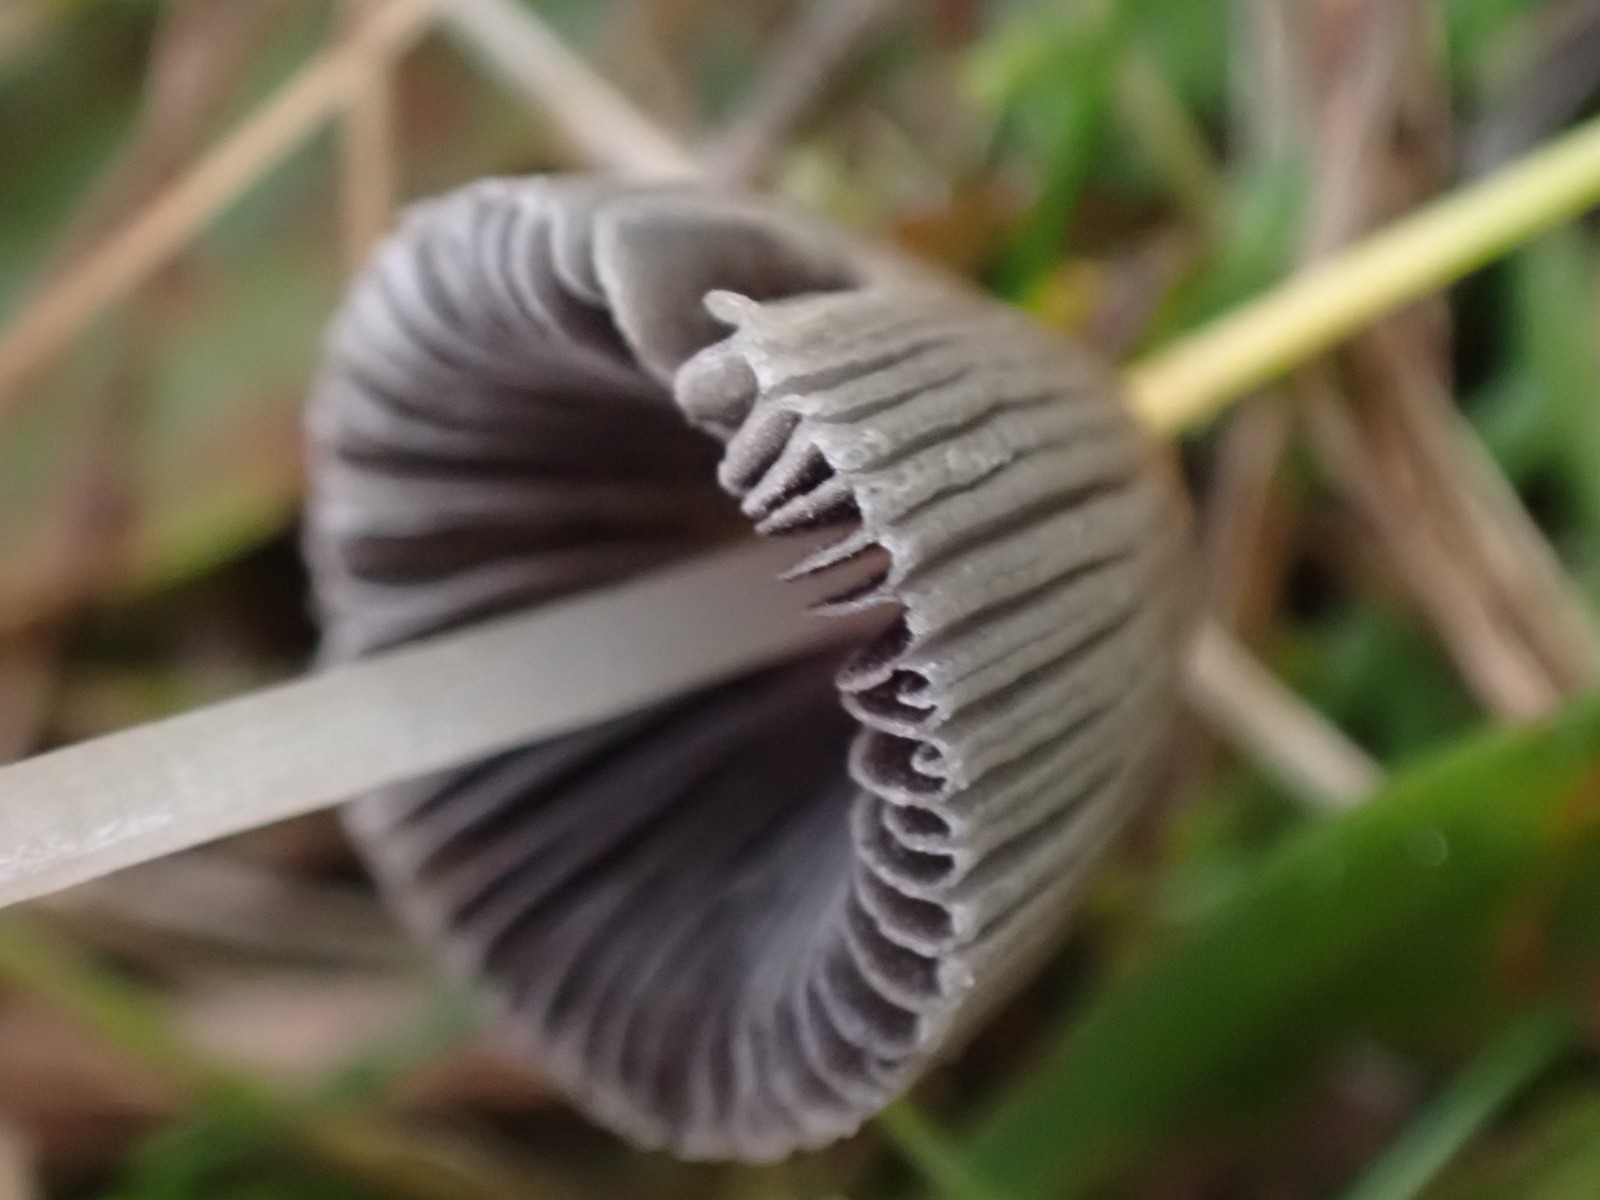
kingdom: Fungi
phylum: Basidiomycota
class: Agaricomycetes
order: Agaricales
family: Psathyrellaceae
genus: Parasola
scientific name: Parasola
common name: hjulhat
